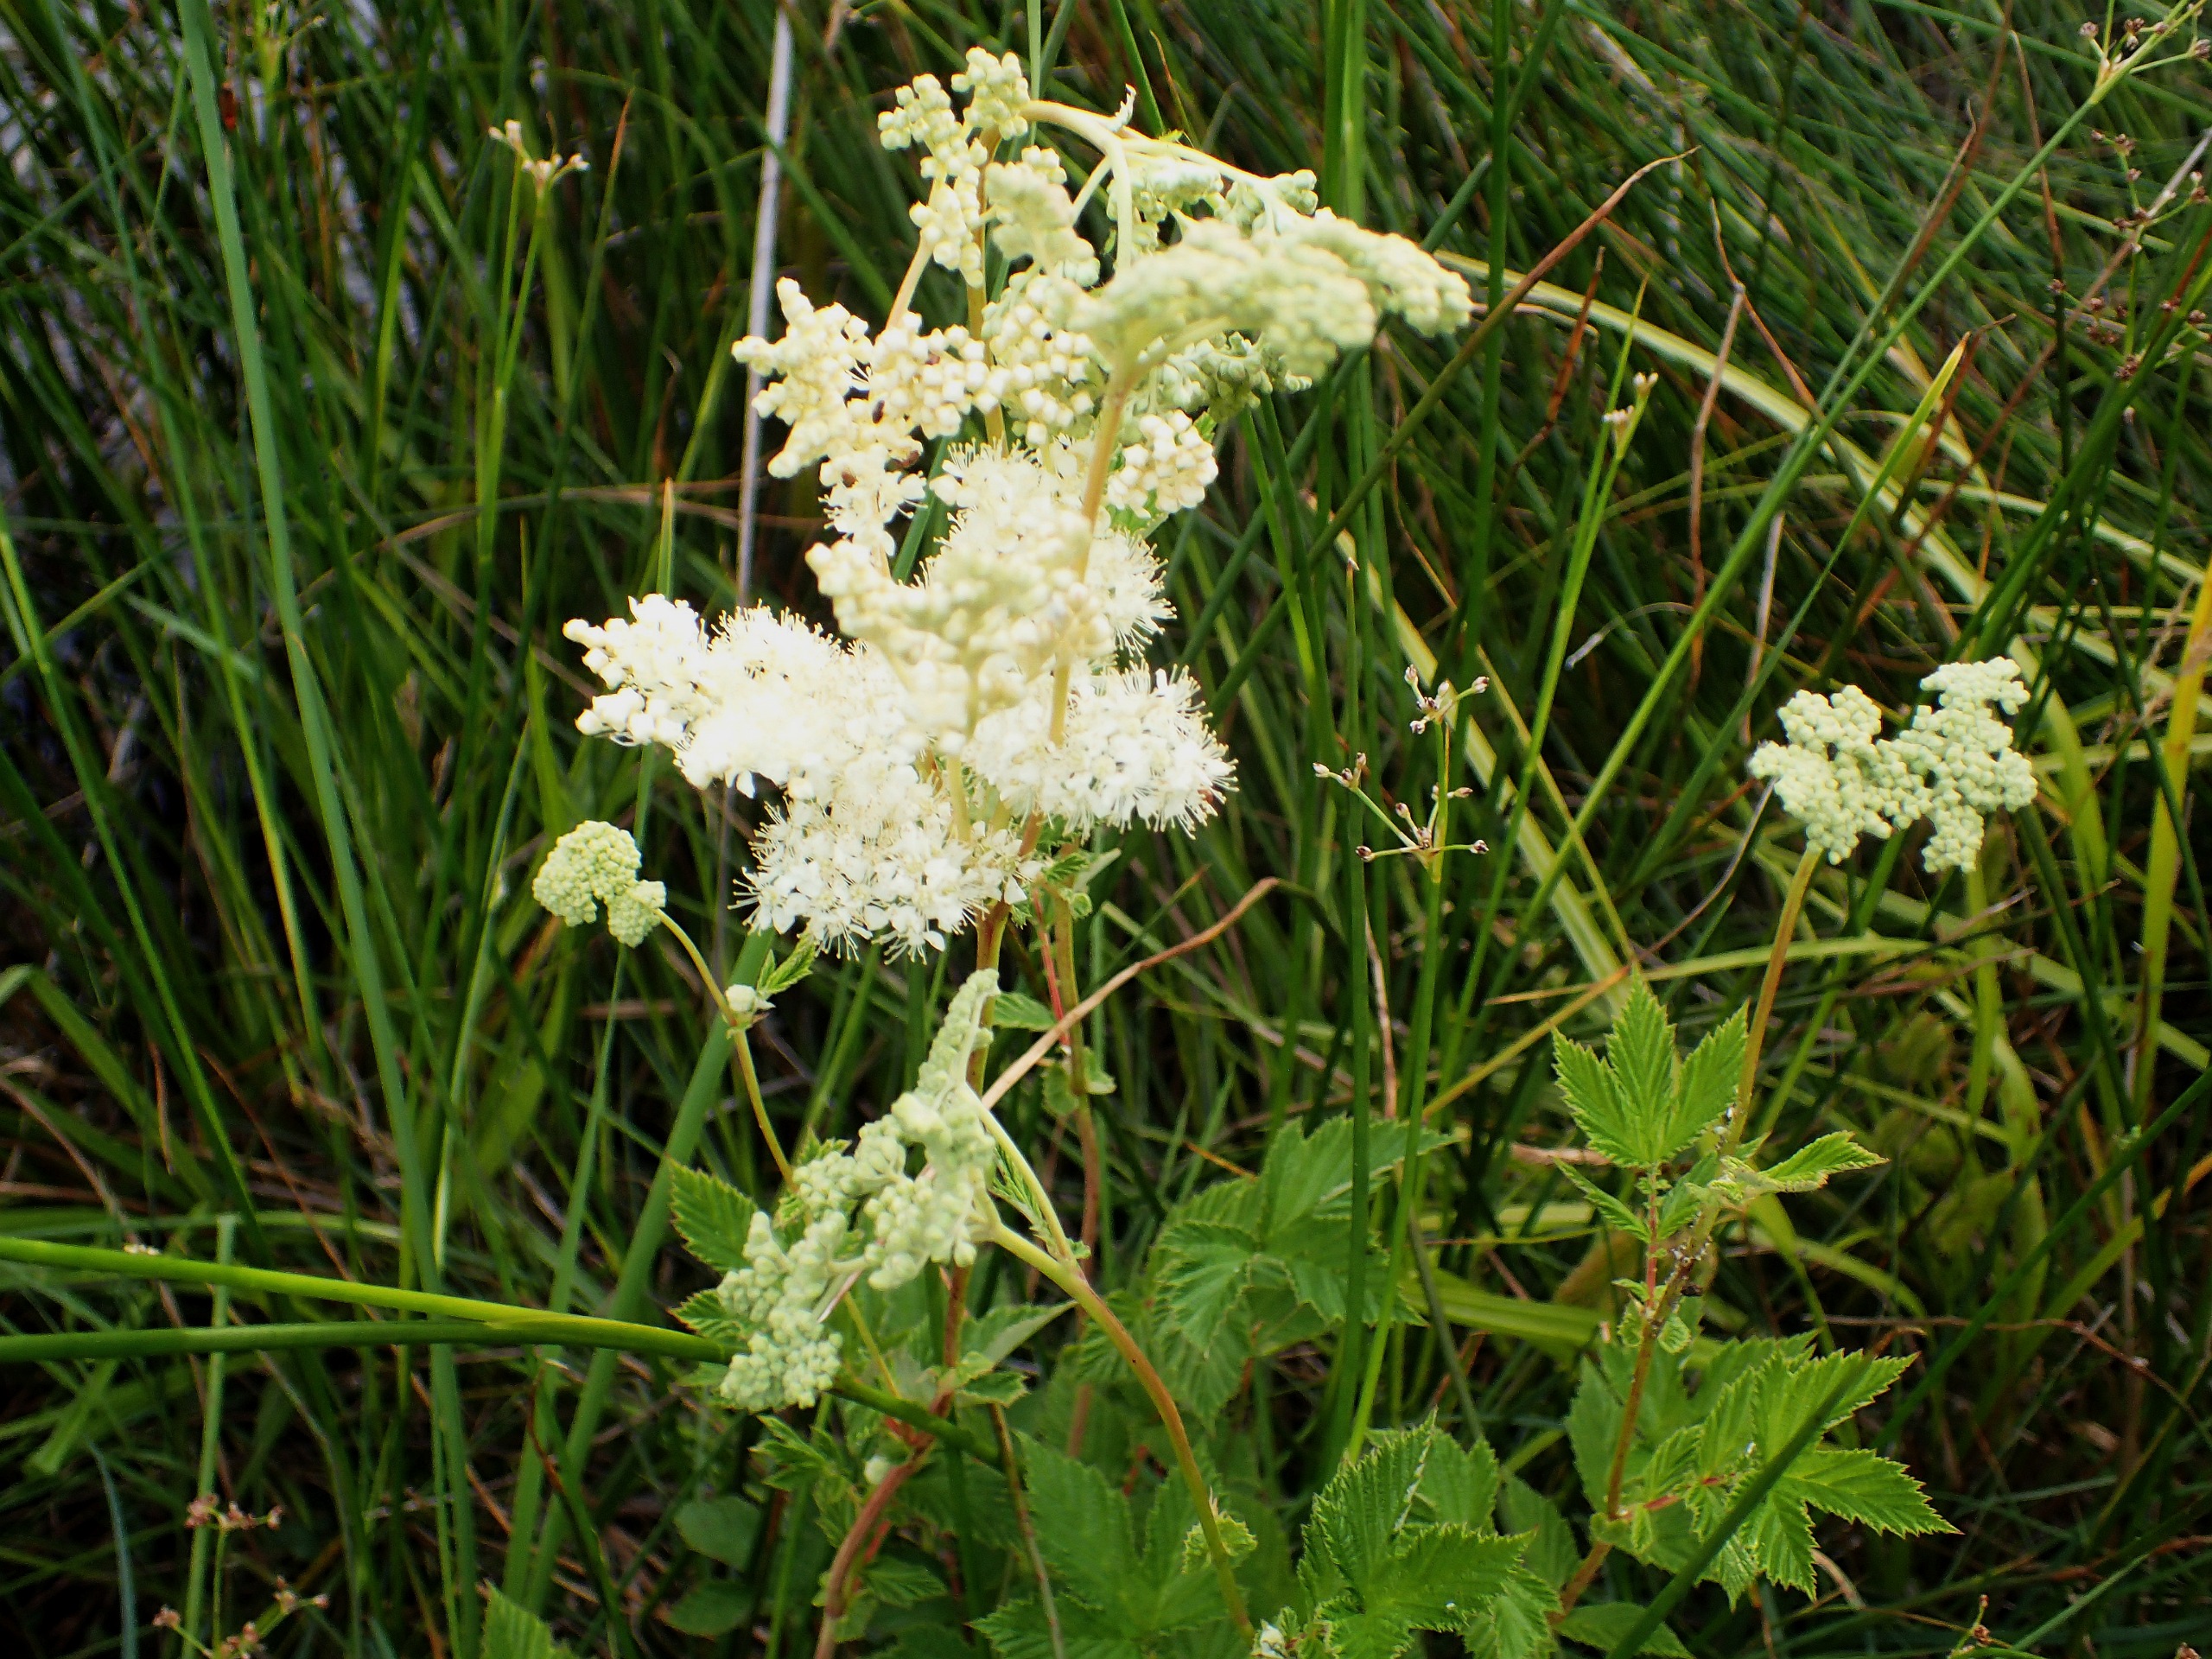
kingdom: Plantae
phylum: Tracheophyta
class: Magnoliopsida
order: Rosales
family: Rosaceae
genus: Filipendula
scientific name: Filipendula ulmaria
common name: Almindelig mjødurt
